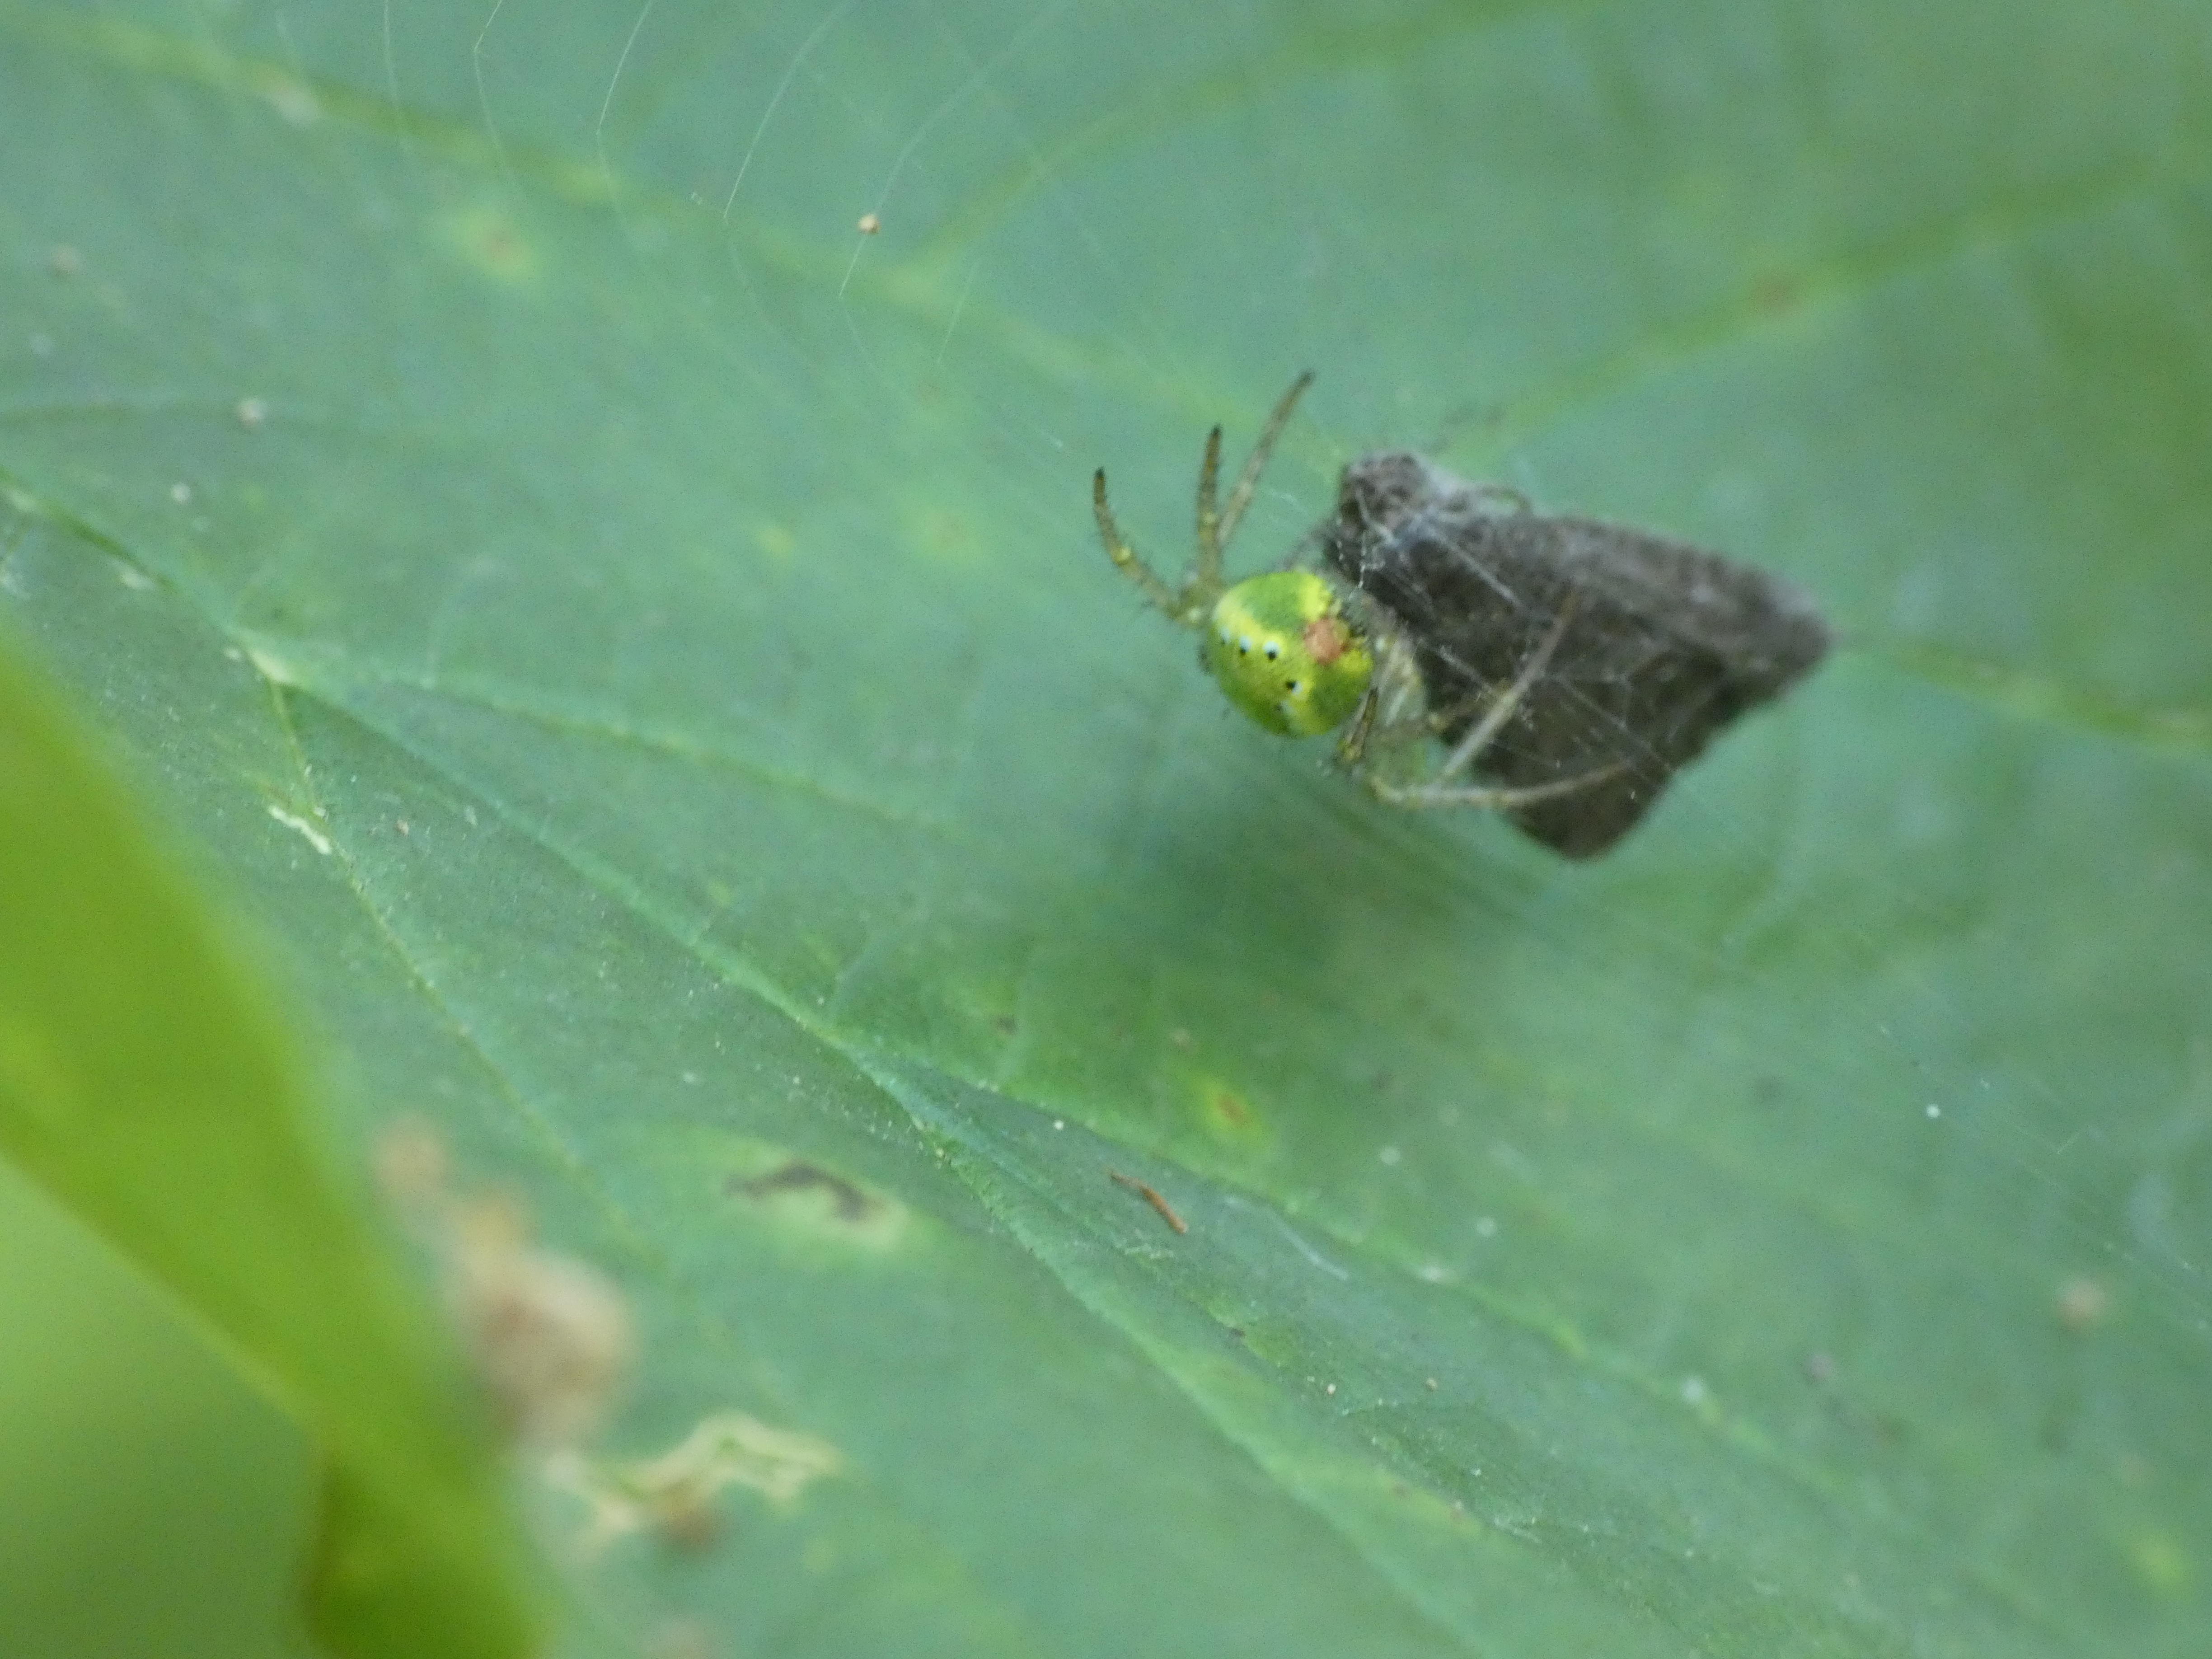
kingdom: Animalia
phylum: Arthropoda
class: Arachnida
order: Araneae
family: Araneidae
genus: Araniella
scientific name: Araniella
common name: Agurkeedderkopslægten
